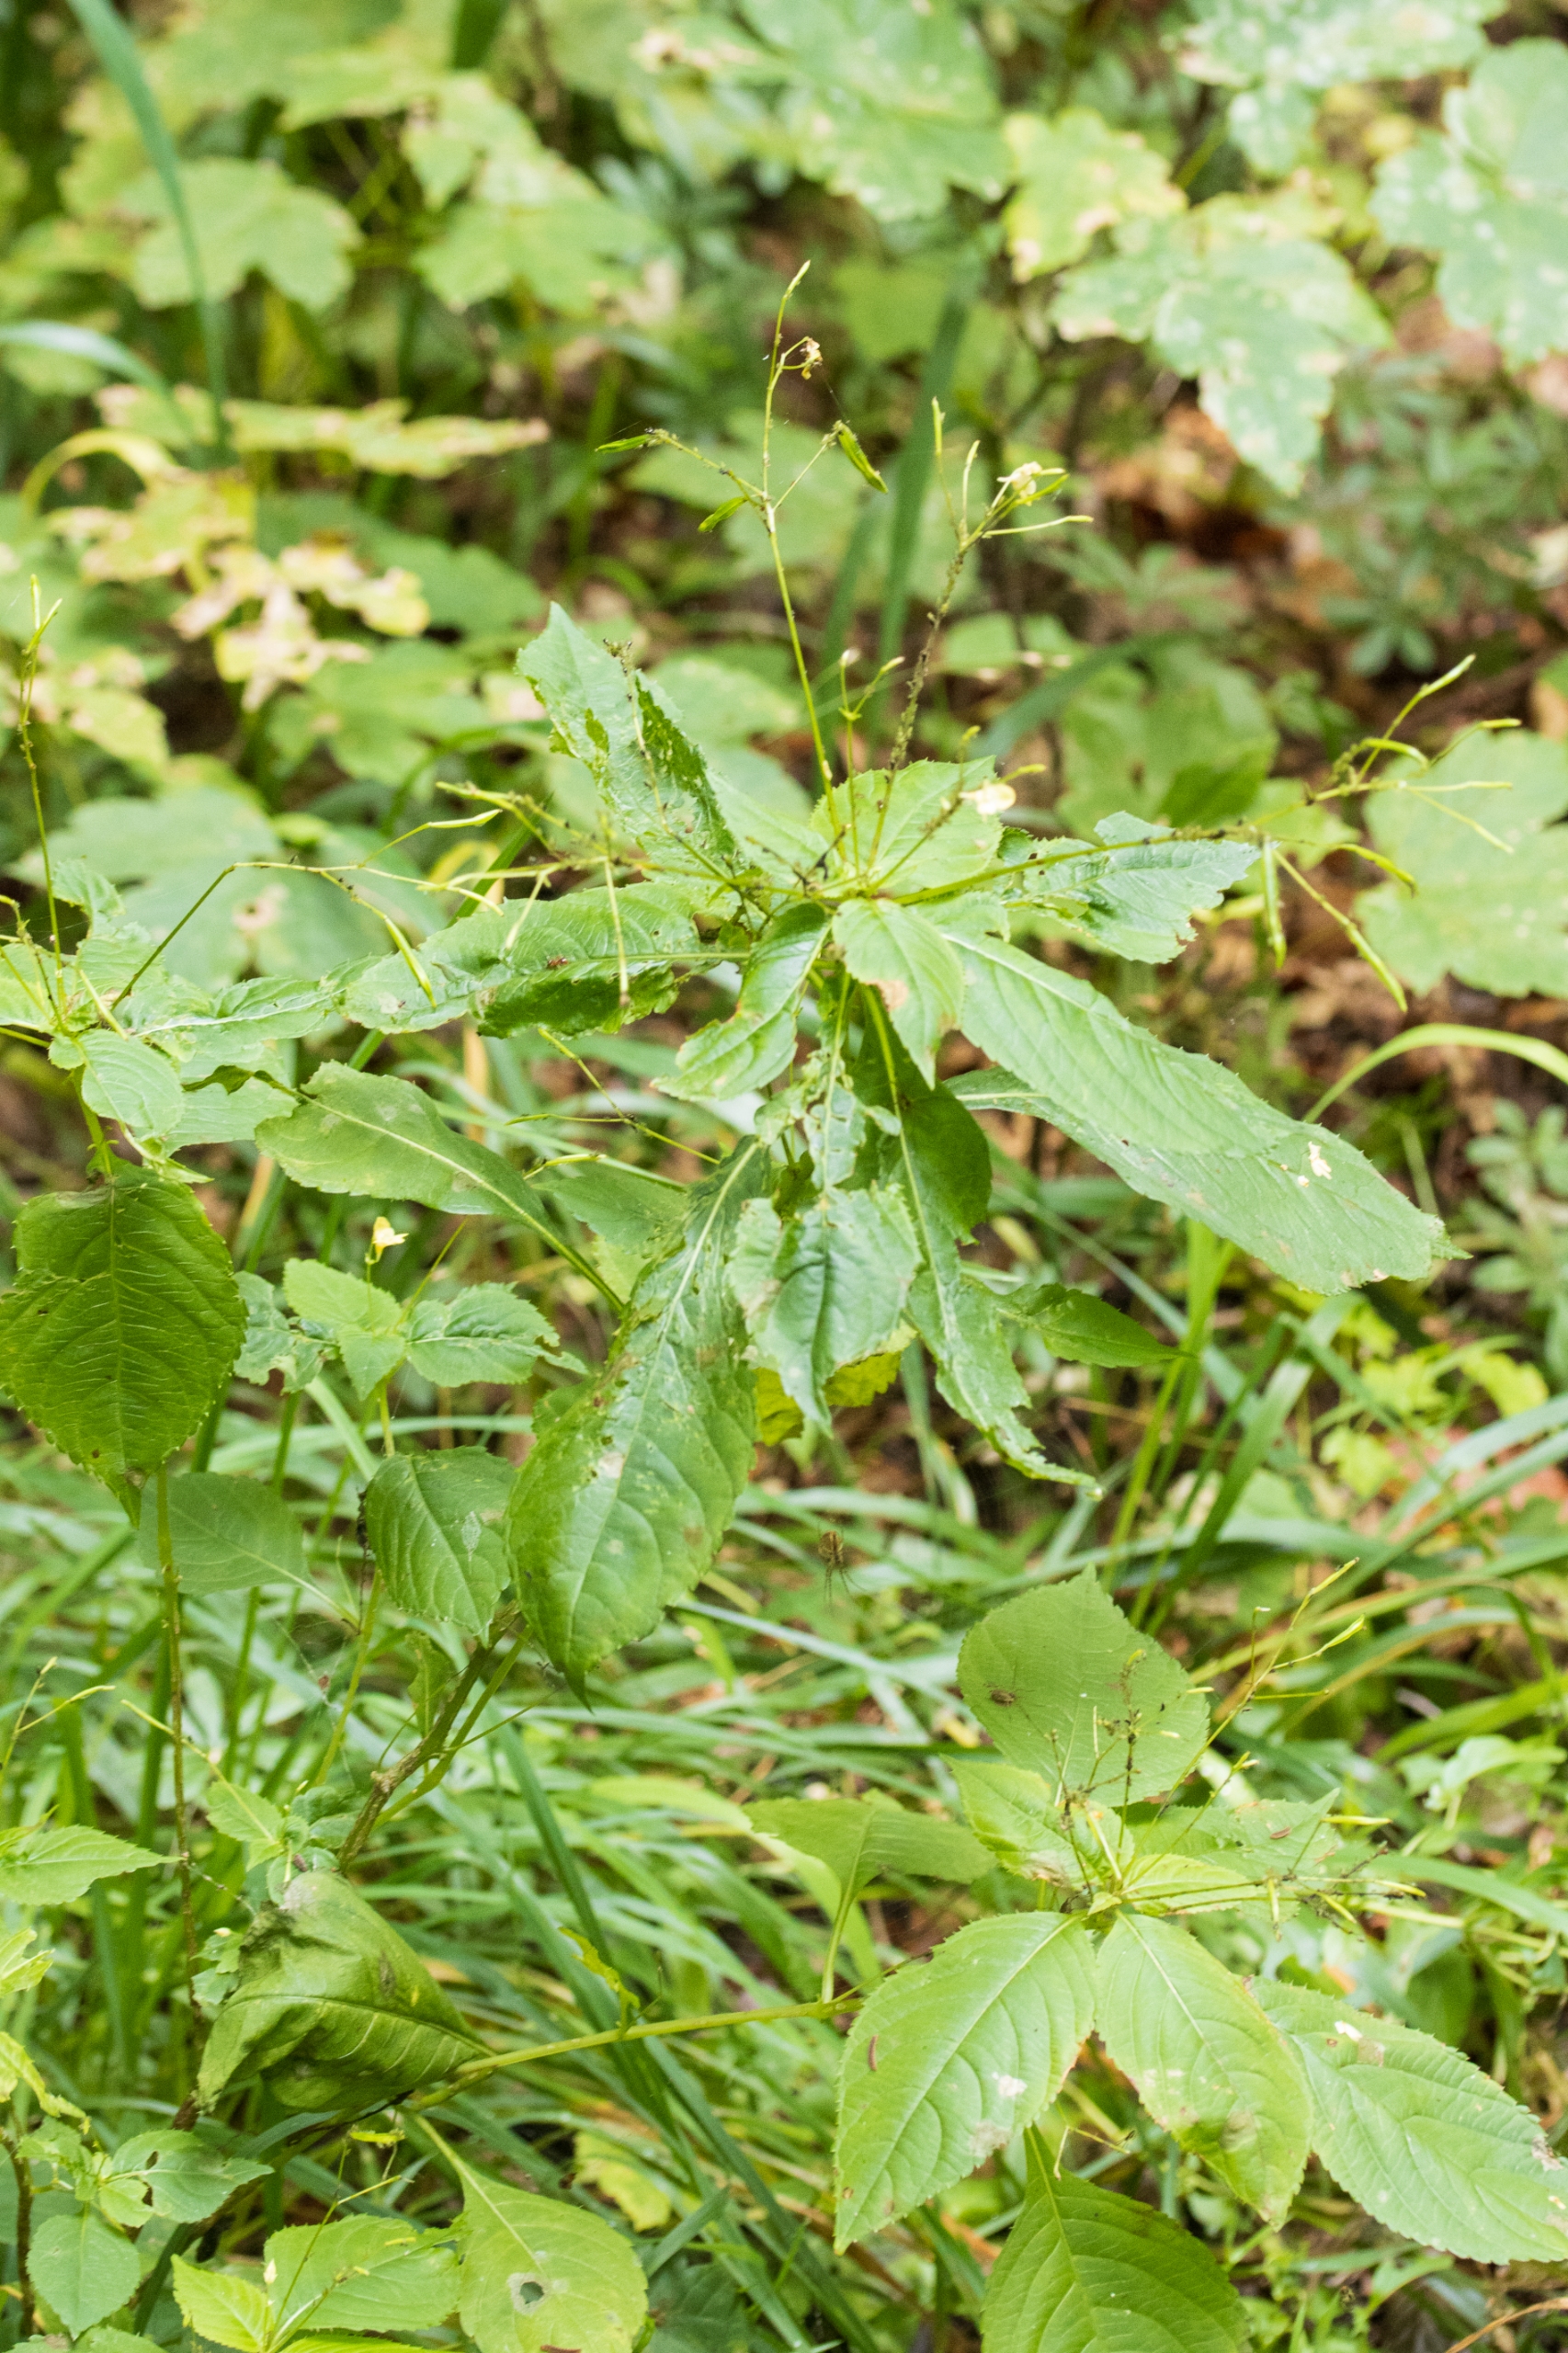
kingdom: Plantae
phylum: Tracheophyta
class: Magnoliopsida
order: Ericales
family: Balsaminaceae
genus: Impatiens
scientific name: Impatiens parviflora
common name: Småblomstret balsamin
